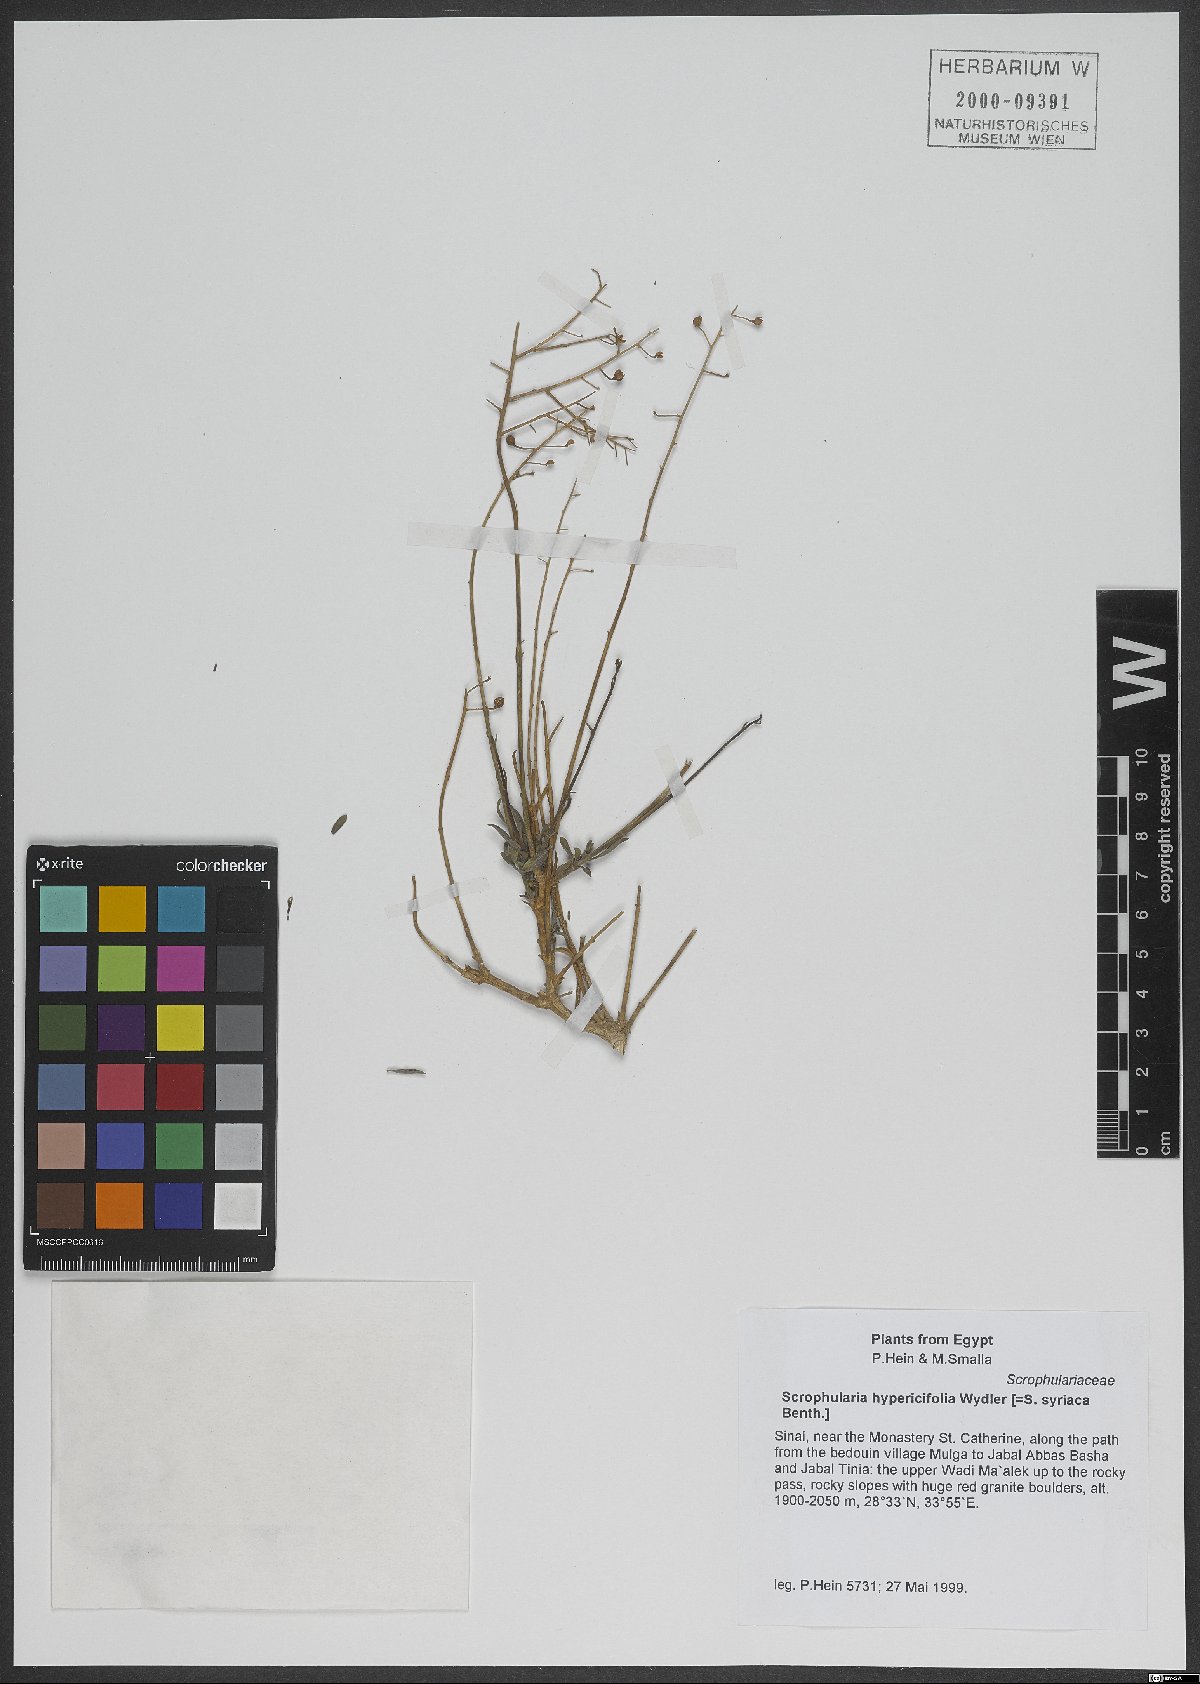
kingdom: Plantae
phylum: Tracheophyta
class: Magnoliopsida
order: Lamiales
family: Scrophulariaceae
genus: Scrophularia
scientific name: Scrophularia hypericifolia
